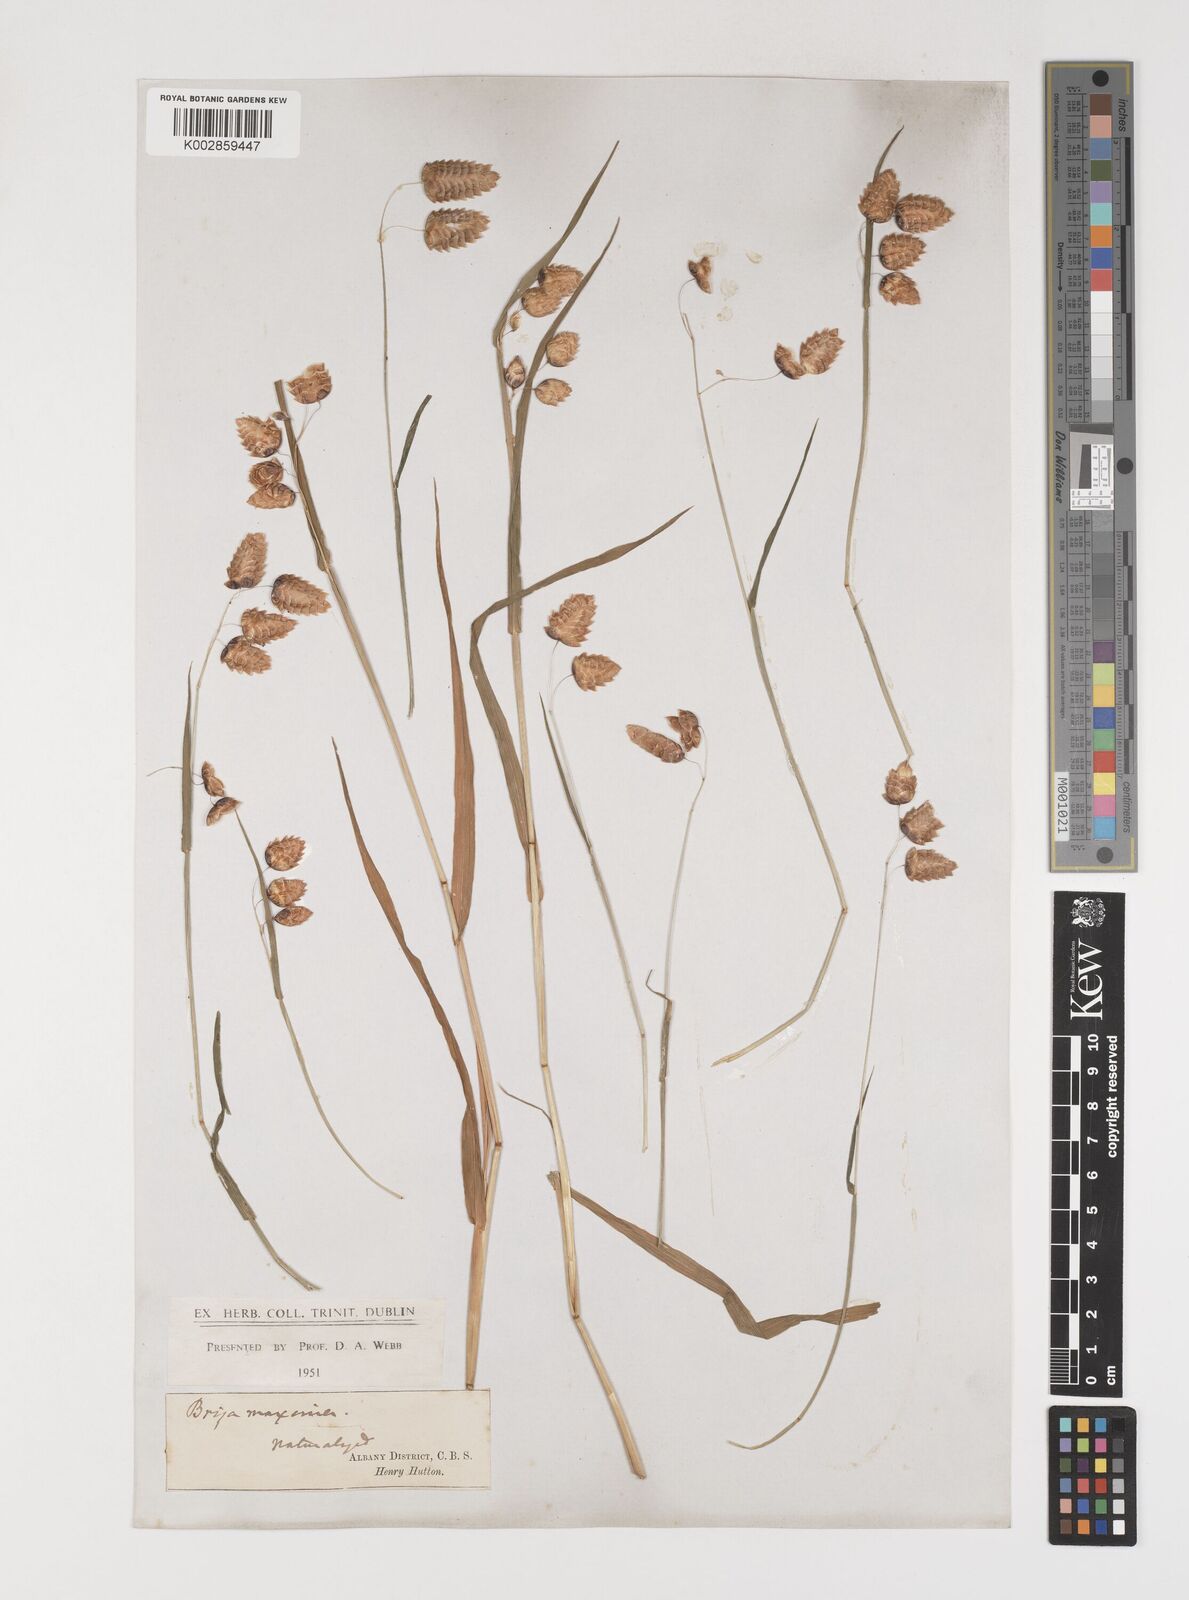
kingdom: Plantae
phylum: Tracheophyta
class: Liliopsida
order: Poales
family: Poaceae
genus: Briza
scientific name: Briza maxima
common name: Big quakinggrass
